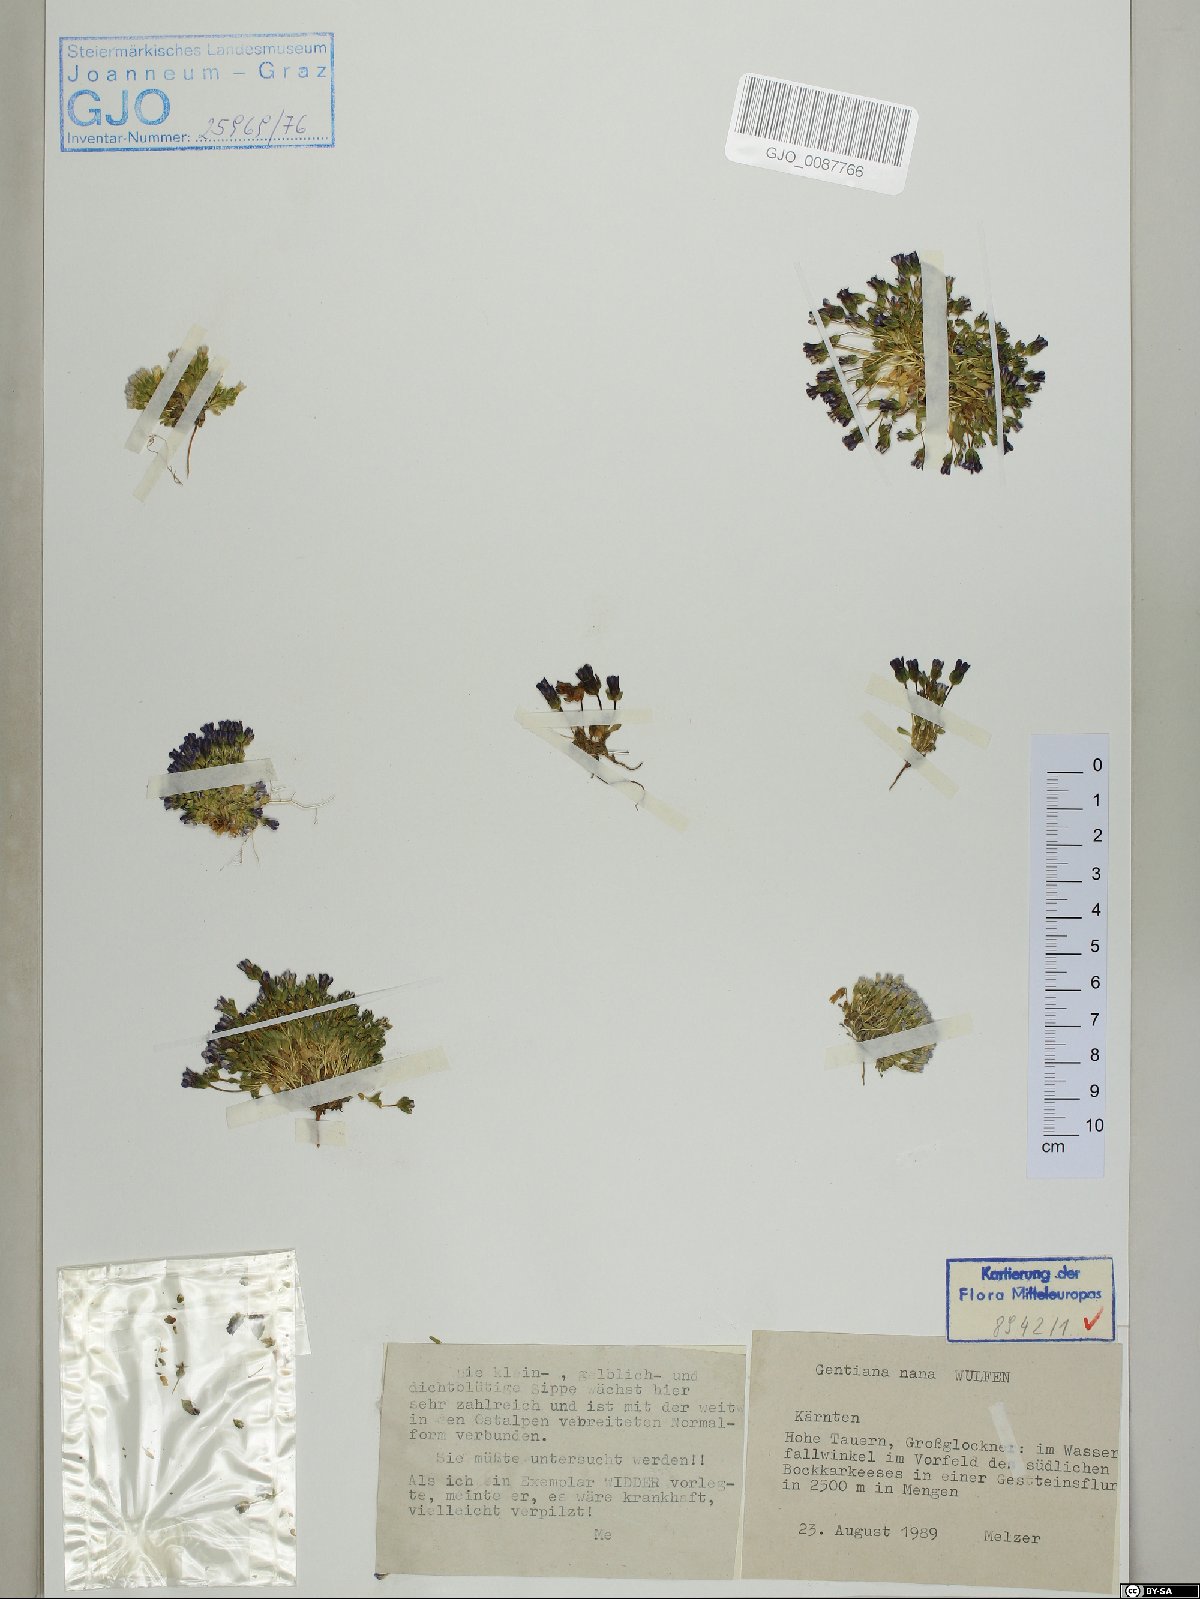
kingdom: Plantae
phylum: Tracheophyta
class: Magnoliopsida
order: Gentianales
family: Gentianaceae
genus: Comastoma
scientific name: Comastoma nanum
